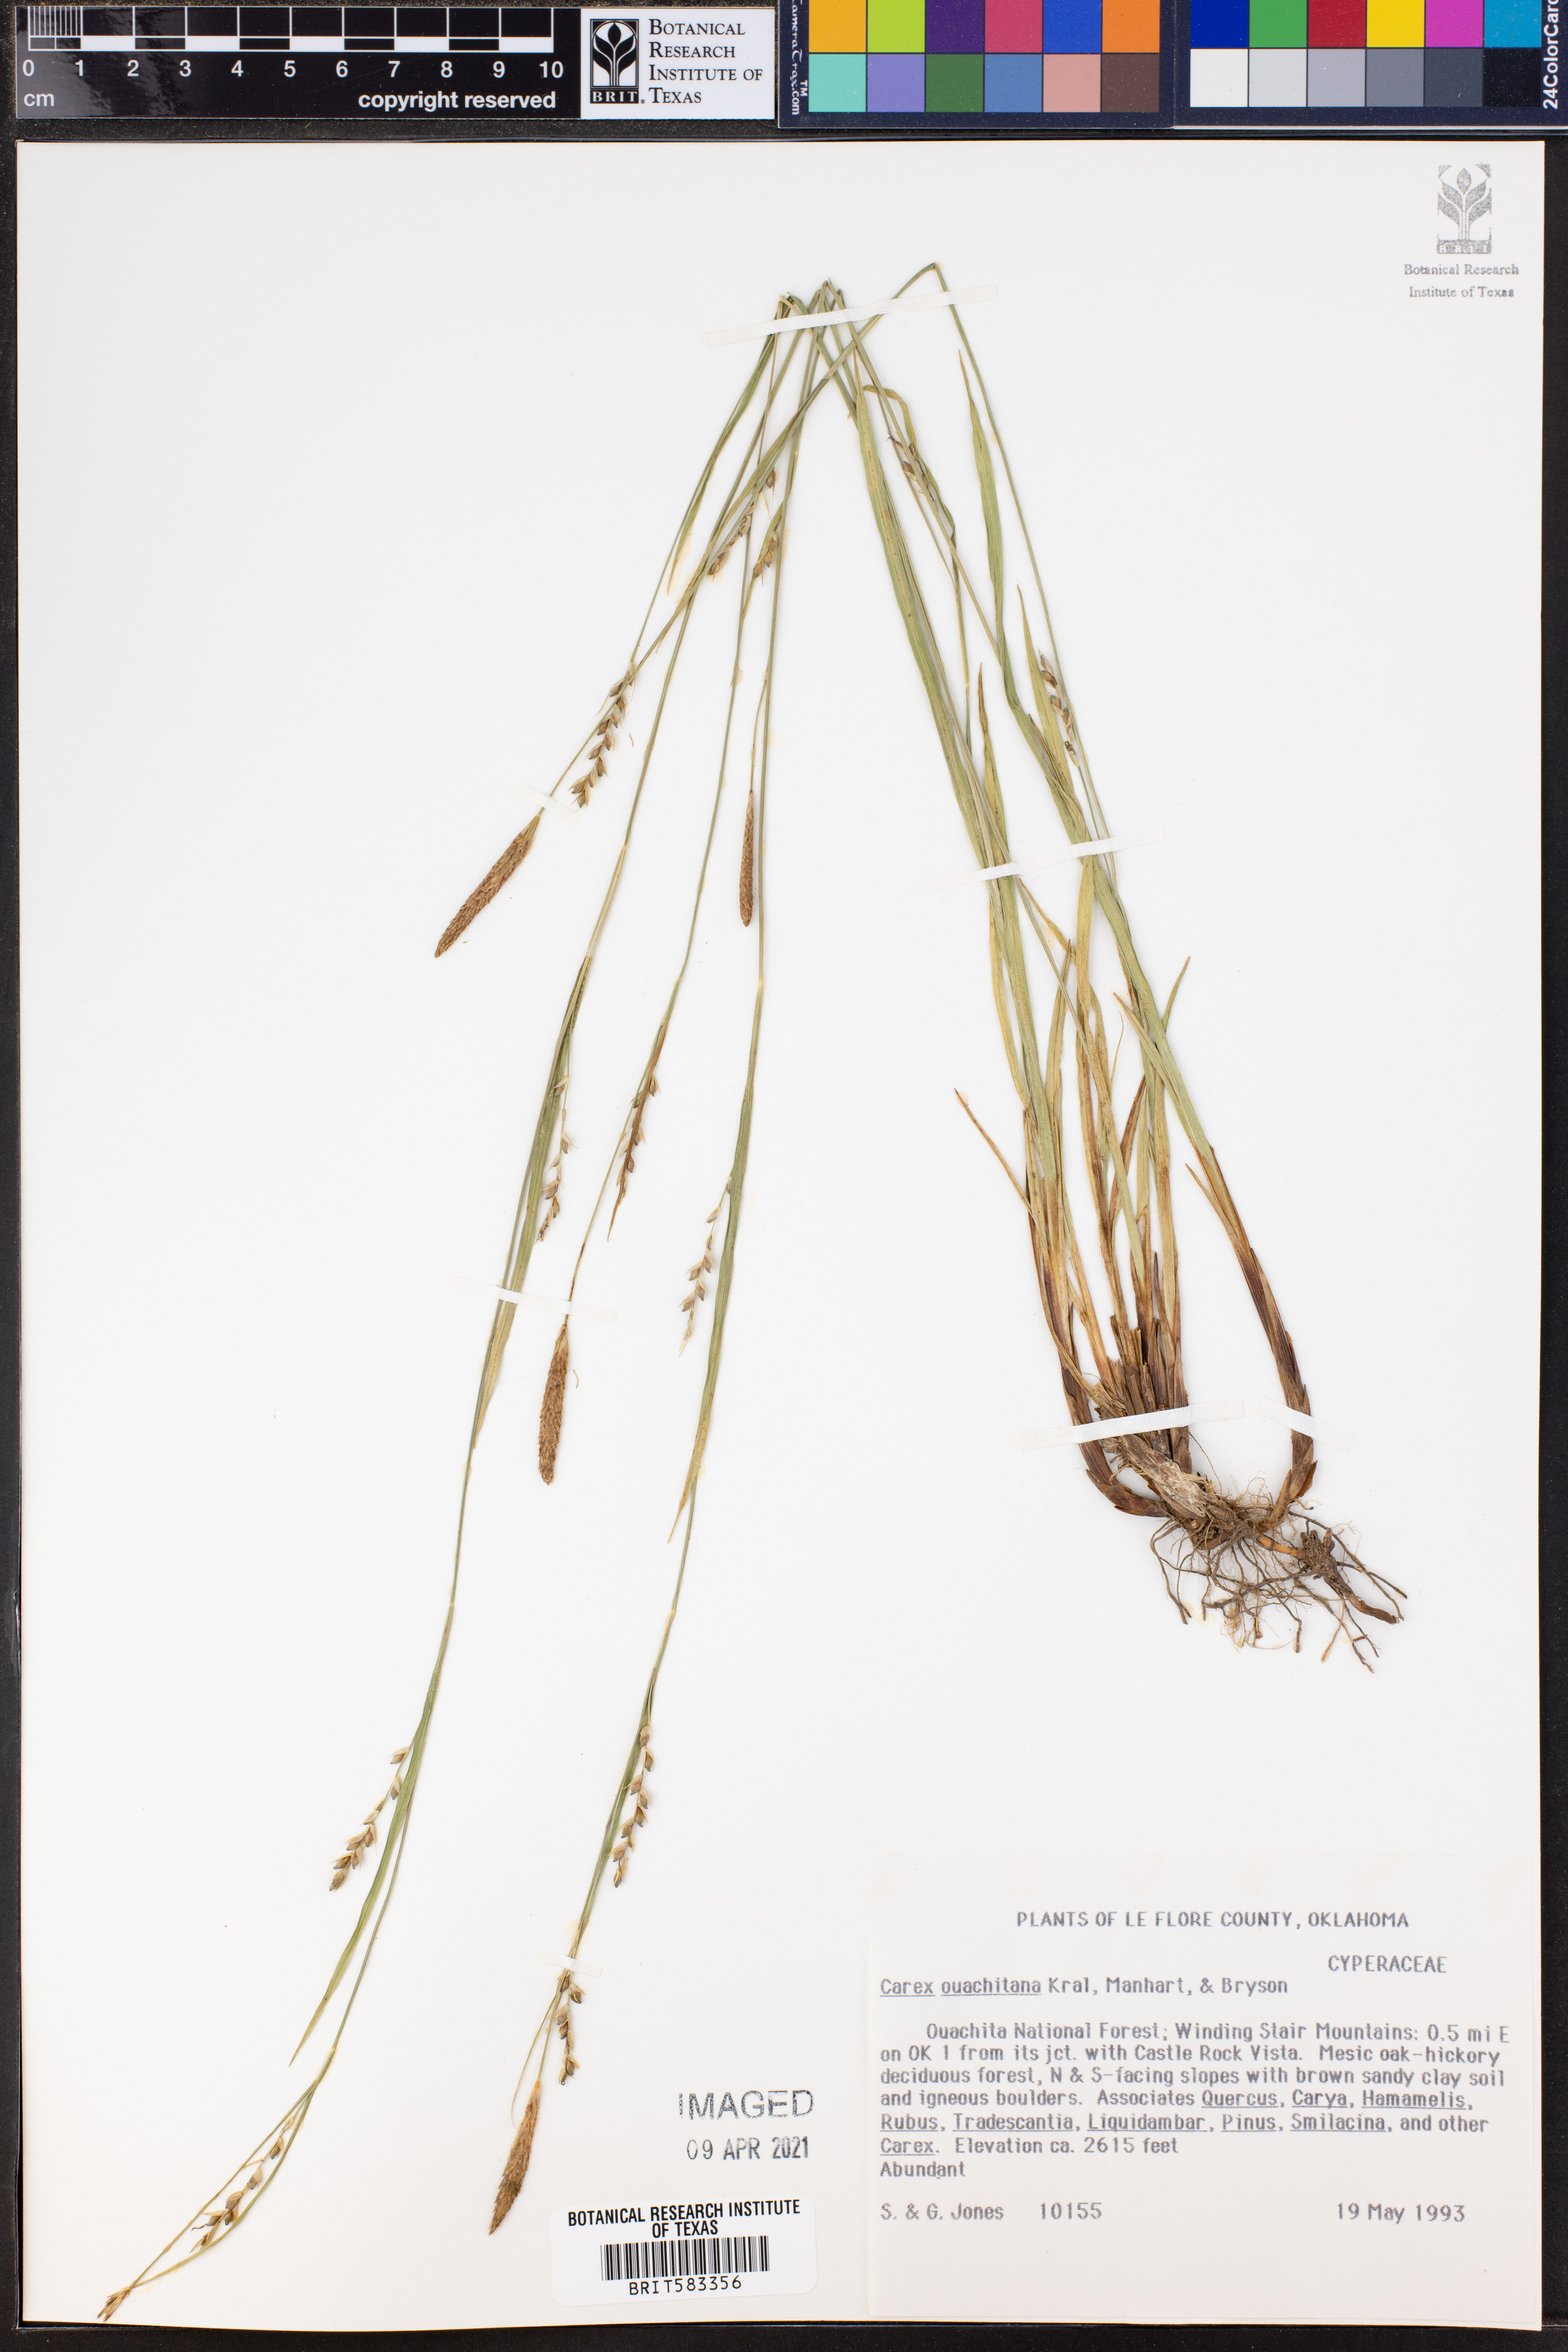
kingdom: Plantae
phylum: Tracheophyta
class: Liliopsida
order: Poales
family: Cyperaceae
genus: Carex
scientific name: Carex ouachitana
